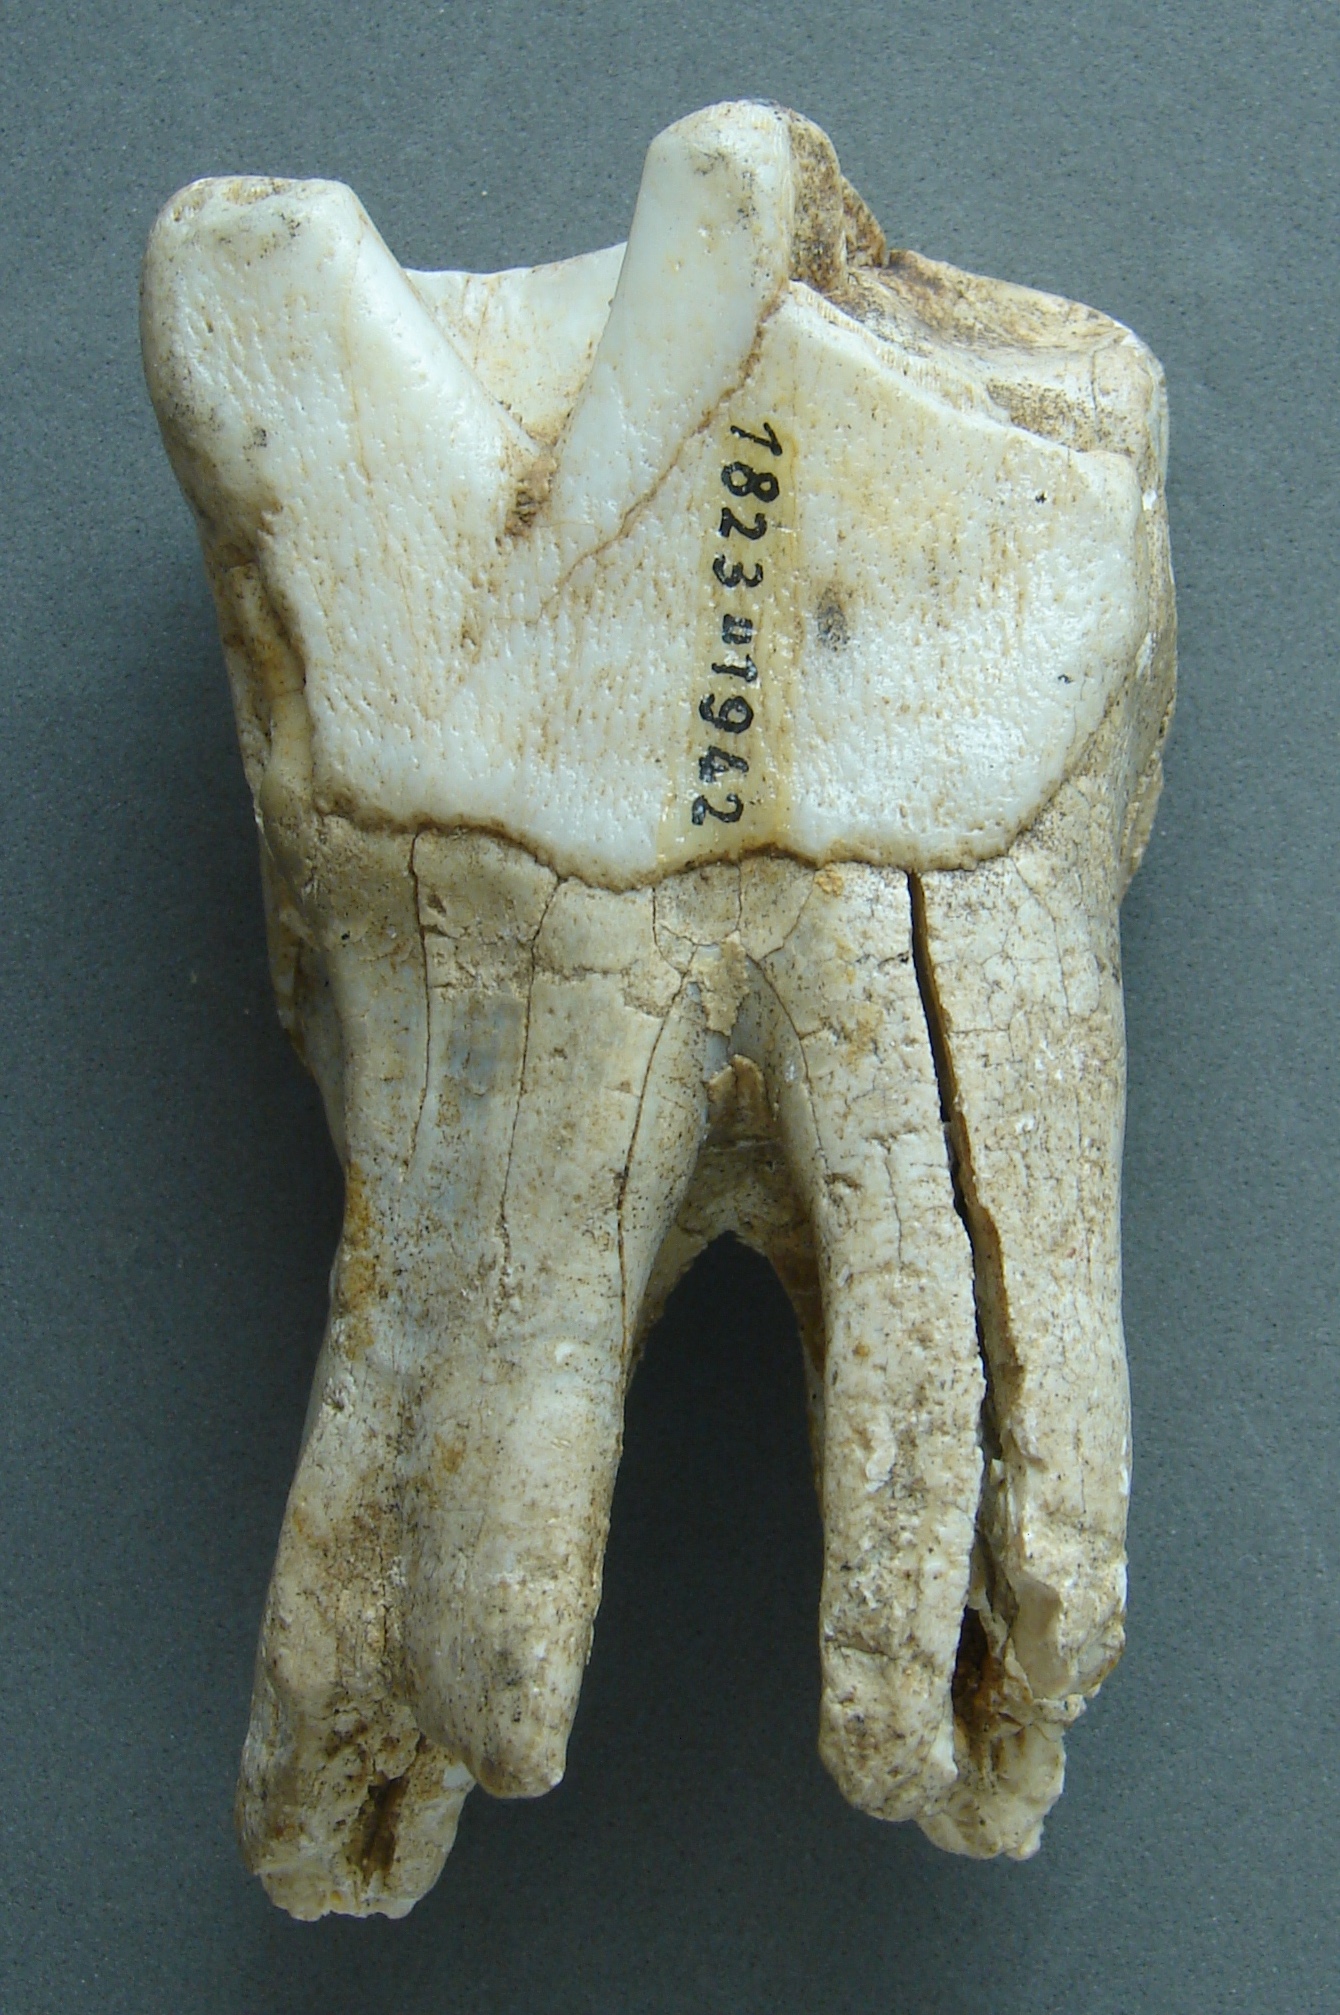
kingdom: Animalia
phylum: Chordata
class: Mammalia
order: Perissodactyla
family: Rhinocerotidae
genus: Rhinoceros
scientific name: Rhinoceros
